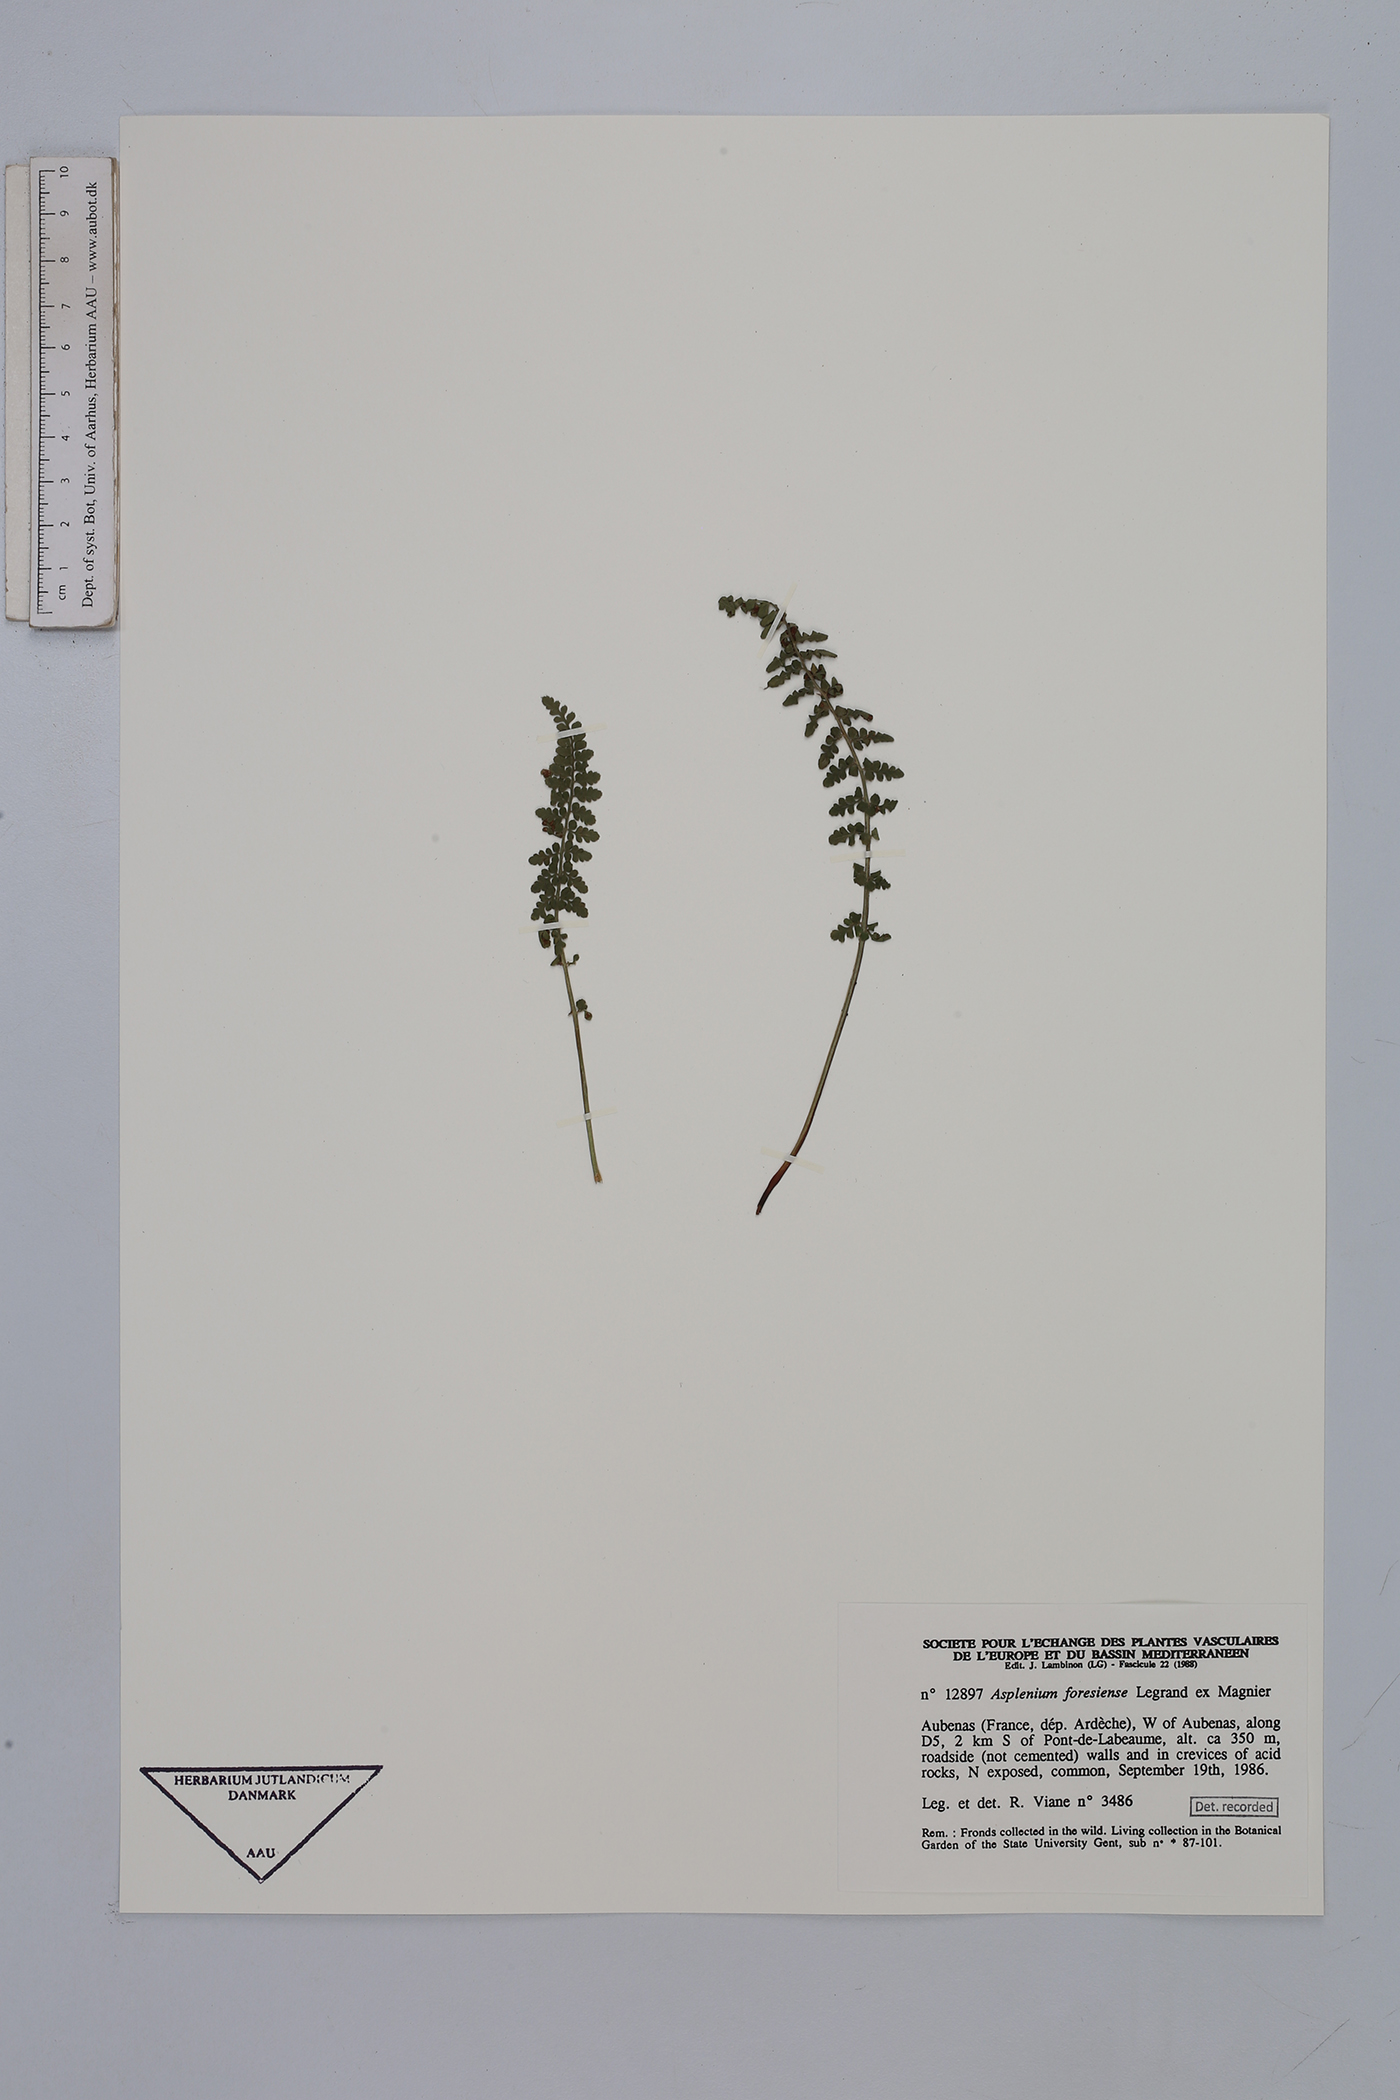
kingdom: Plantae
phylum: Tracheophyta
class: Polypodiopsida
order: Polypodiales
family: Aspleniaceae
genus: Asplenium
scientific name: Asplenium foreziense
